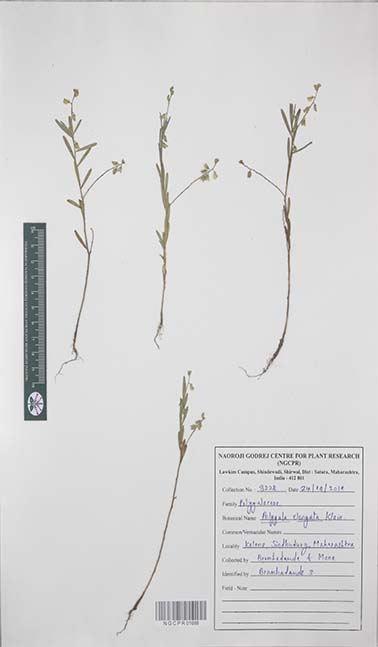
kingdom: Plantae
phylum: Tracheophyta
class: Magnoliopsida
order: Fabales
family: Polygalaceae
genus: Polygala
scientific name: Polygala glaucoides
